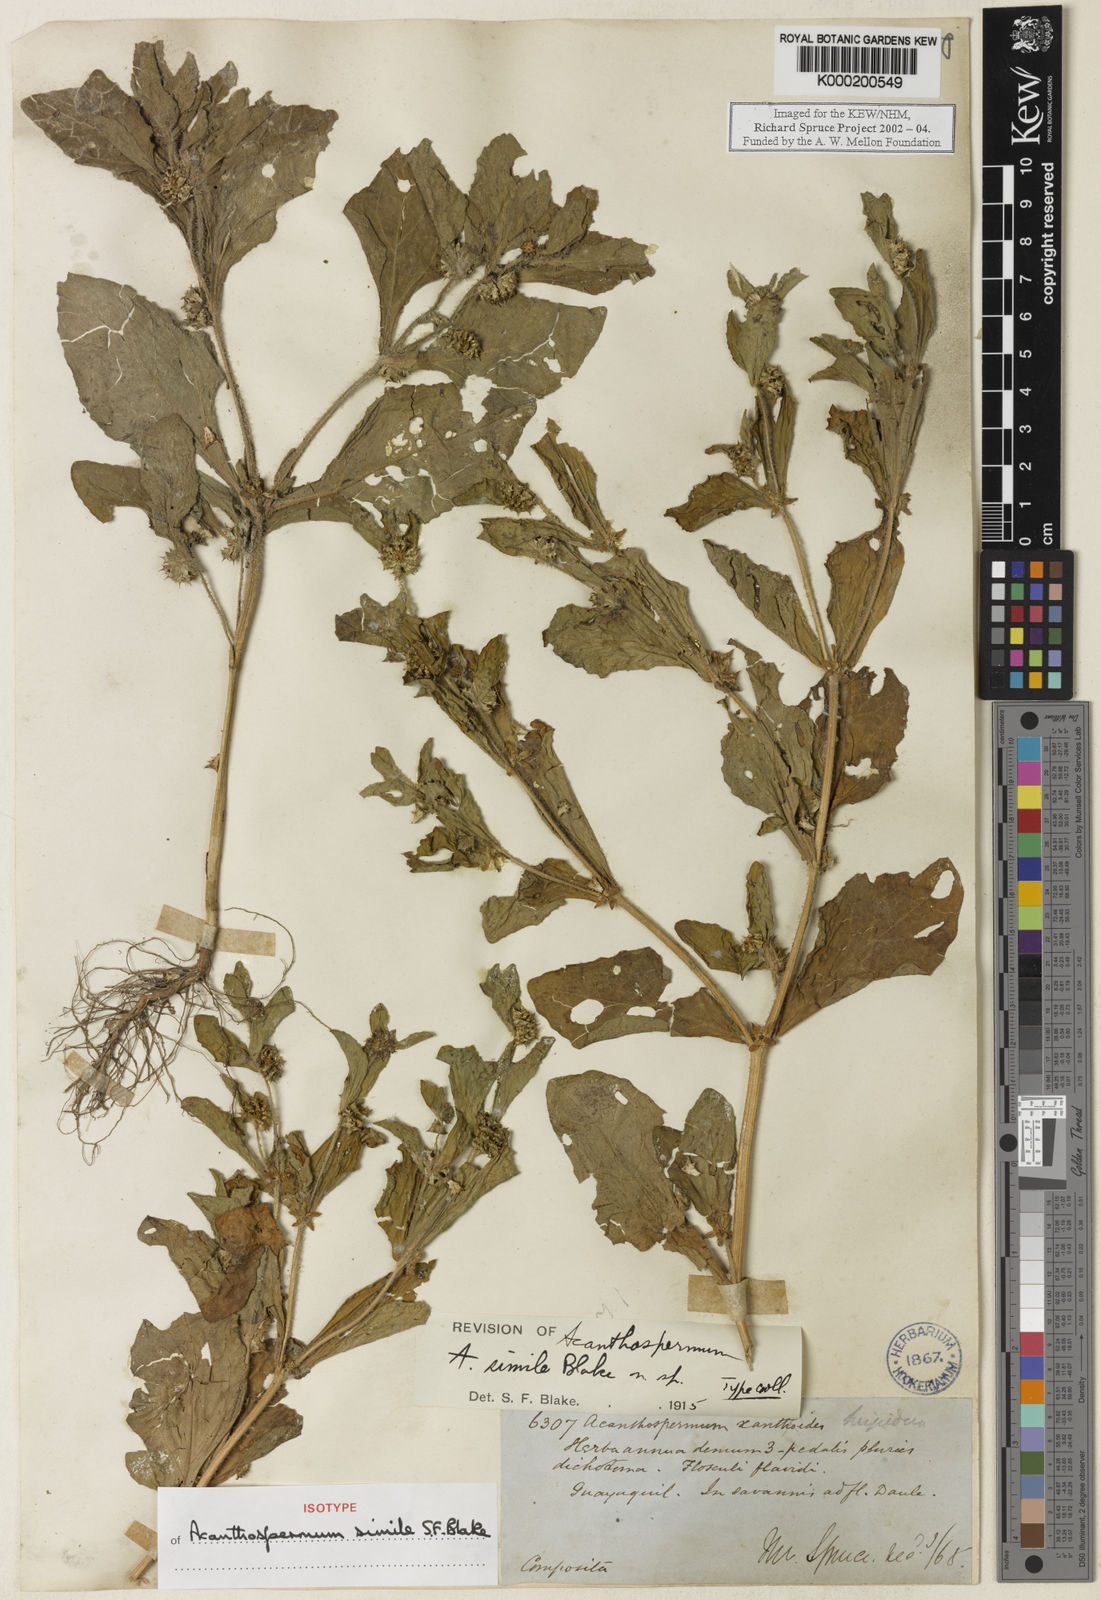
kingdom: Plantae
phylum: Tracheophyta
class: Magnoliopsida
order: Asterales
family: Asteraceae
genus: Acanthospermum
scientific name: Acanthospermum microcarpum
